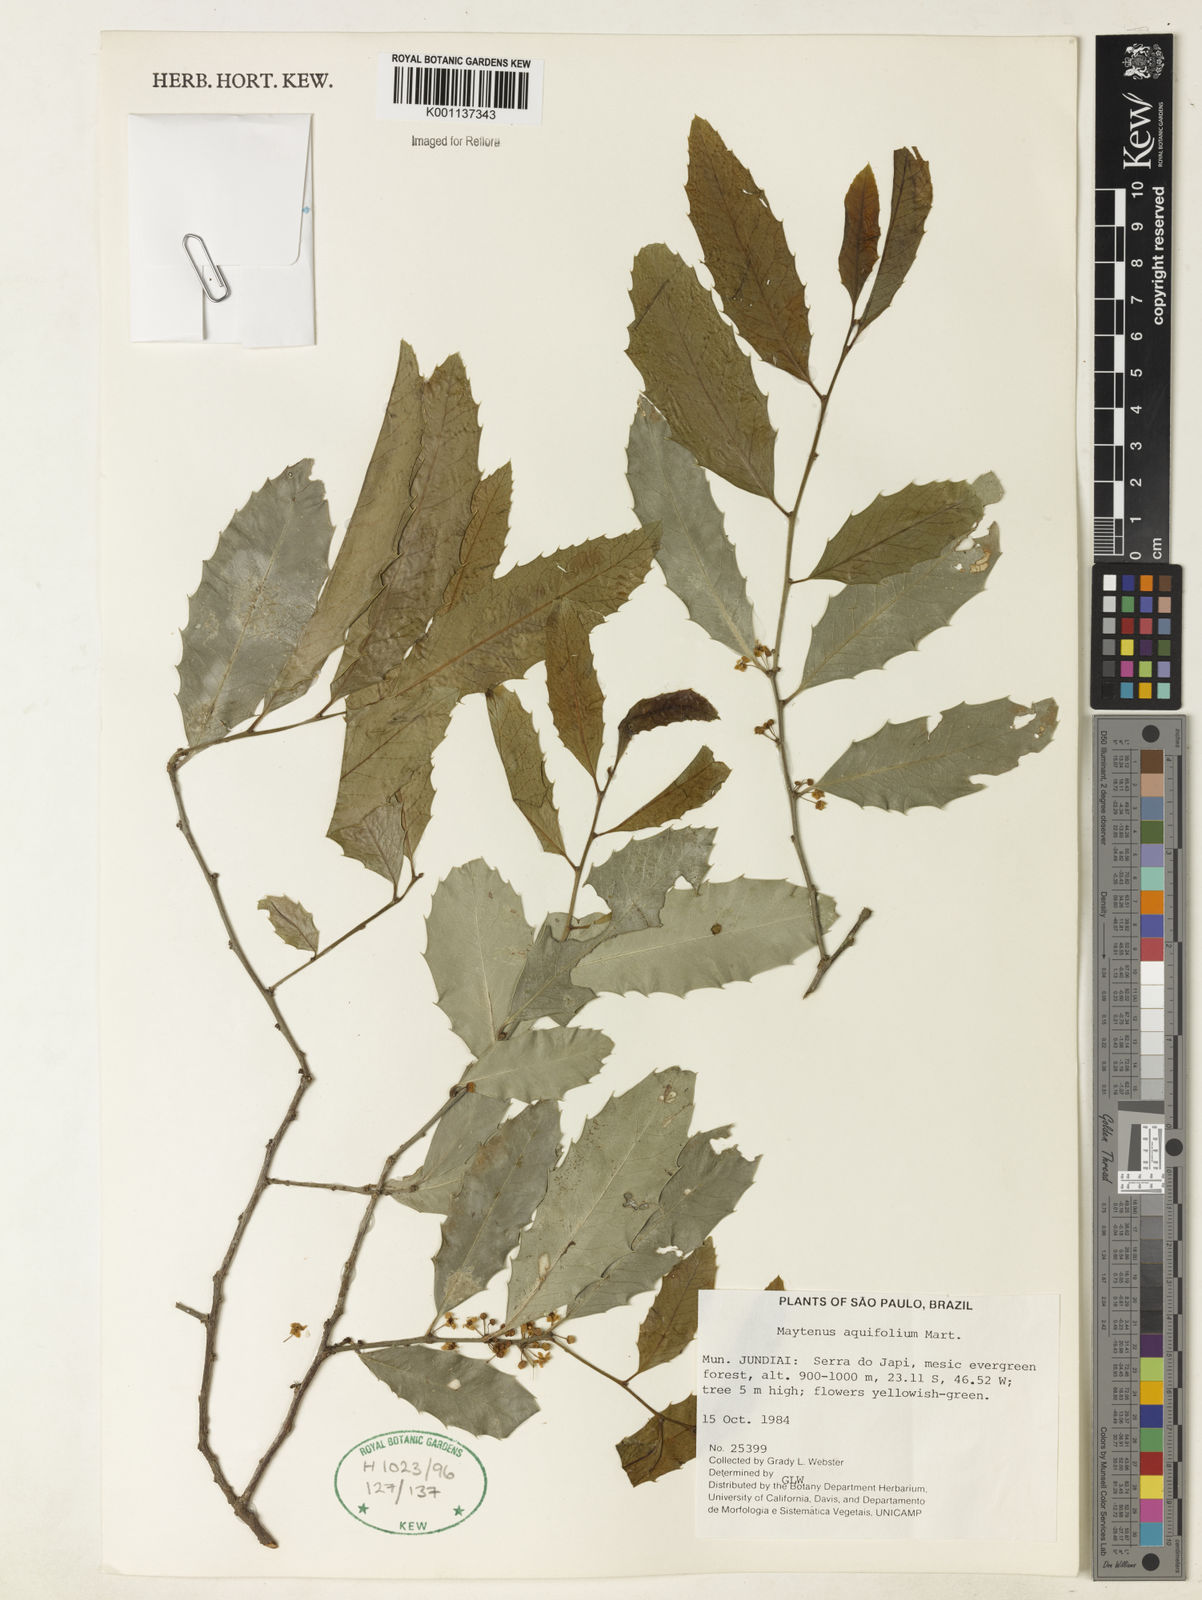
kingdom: Plantae
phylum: Tracheophyta
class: Magnoliopsida
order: Celastrales
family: Celastraceae
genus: Monteverdia
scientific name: Monteverdia aquifolium
